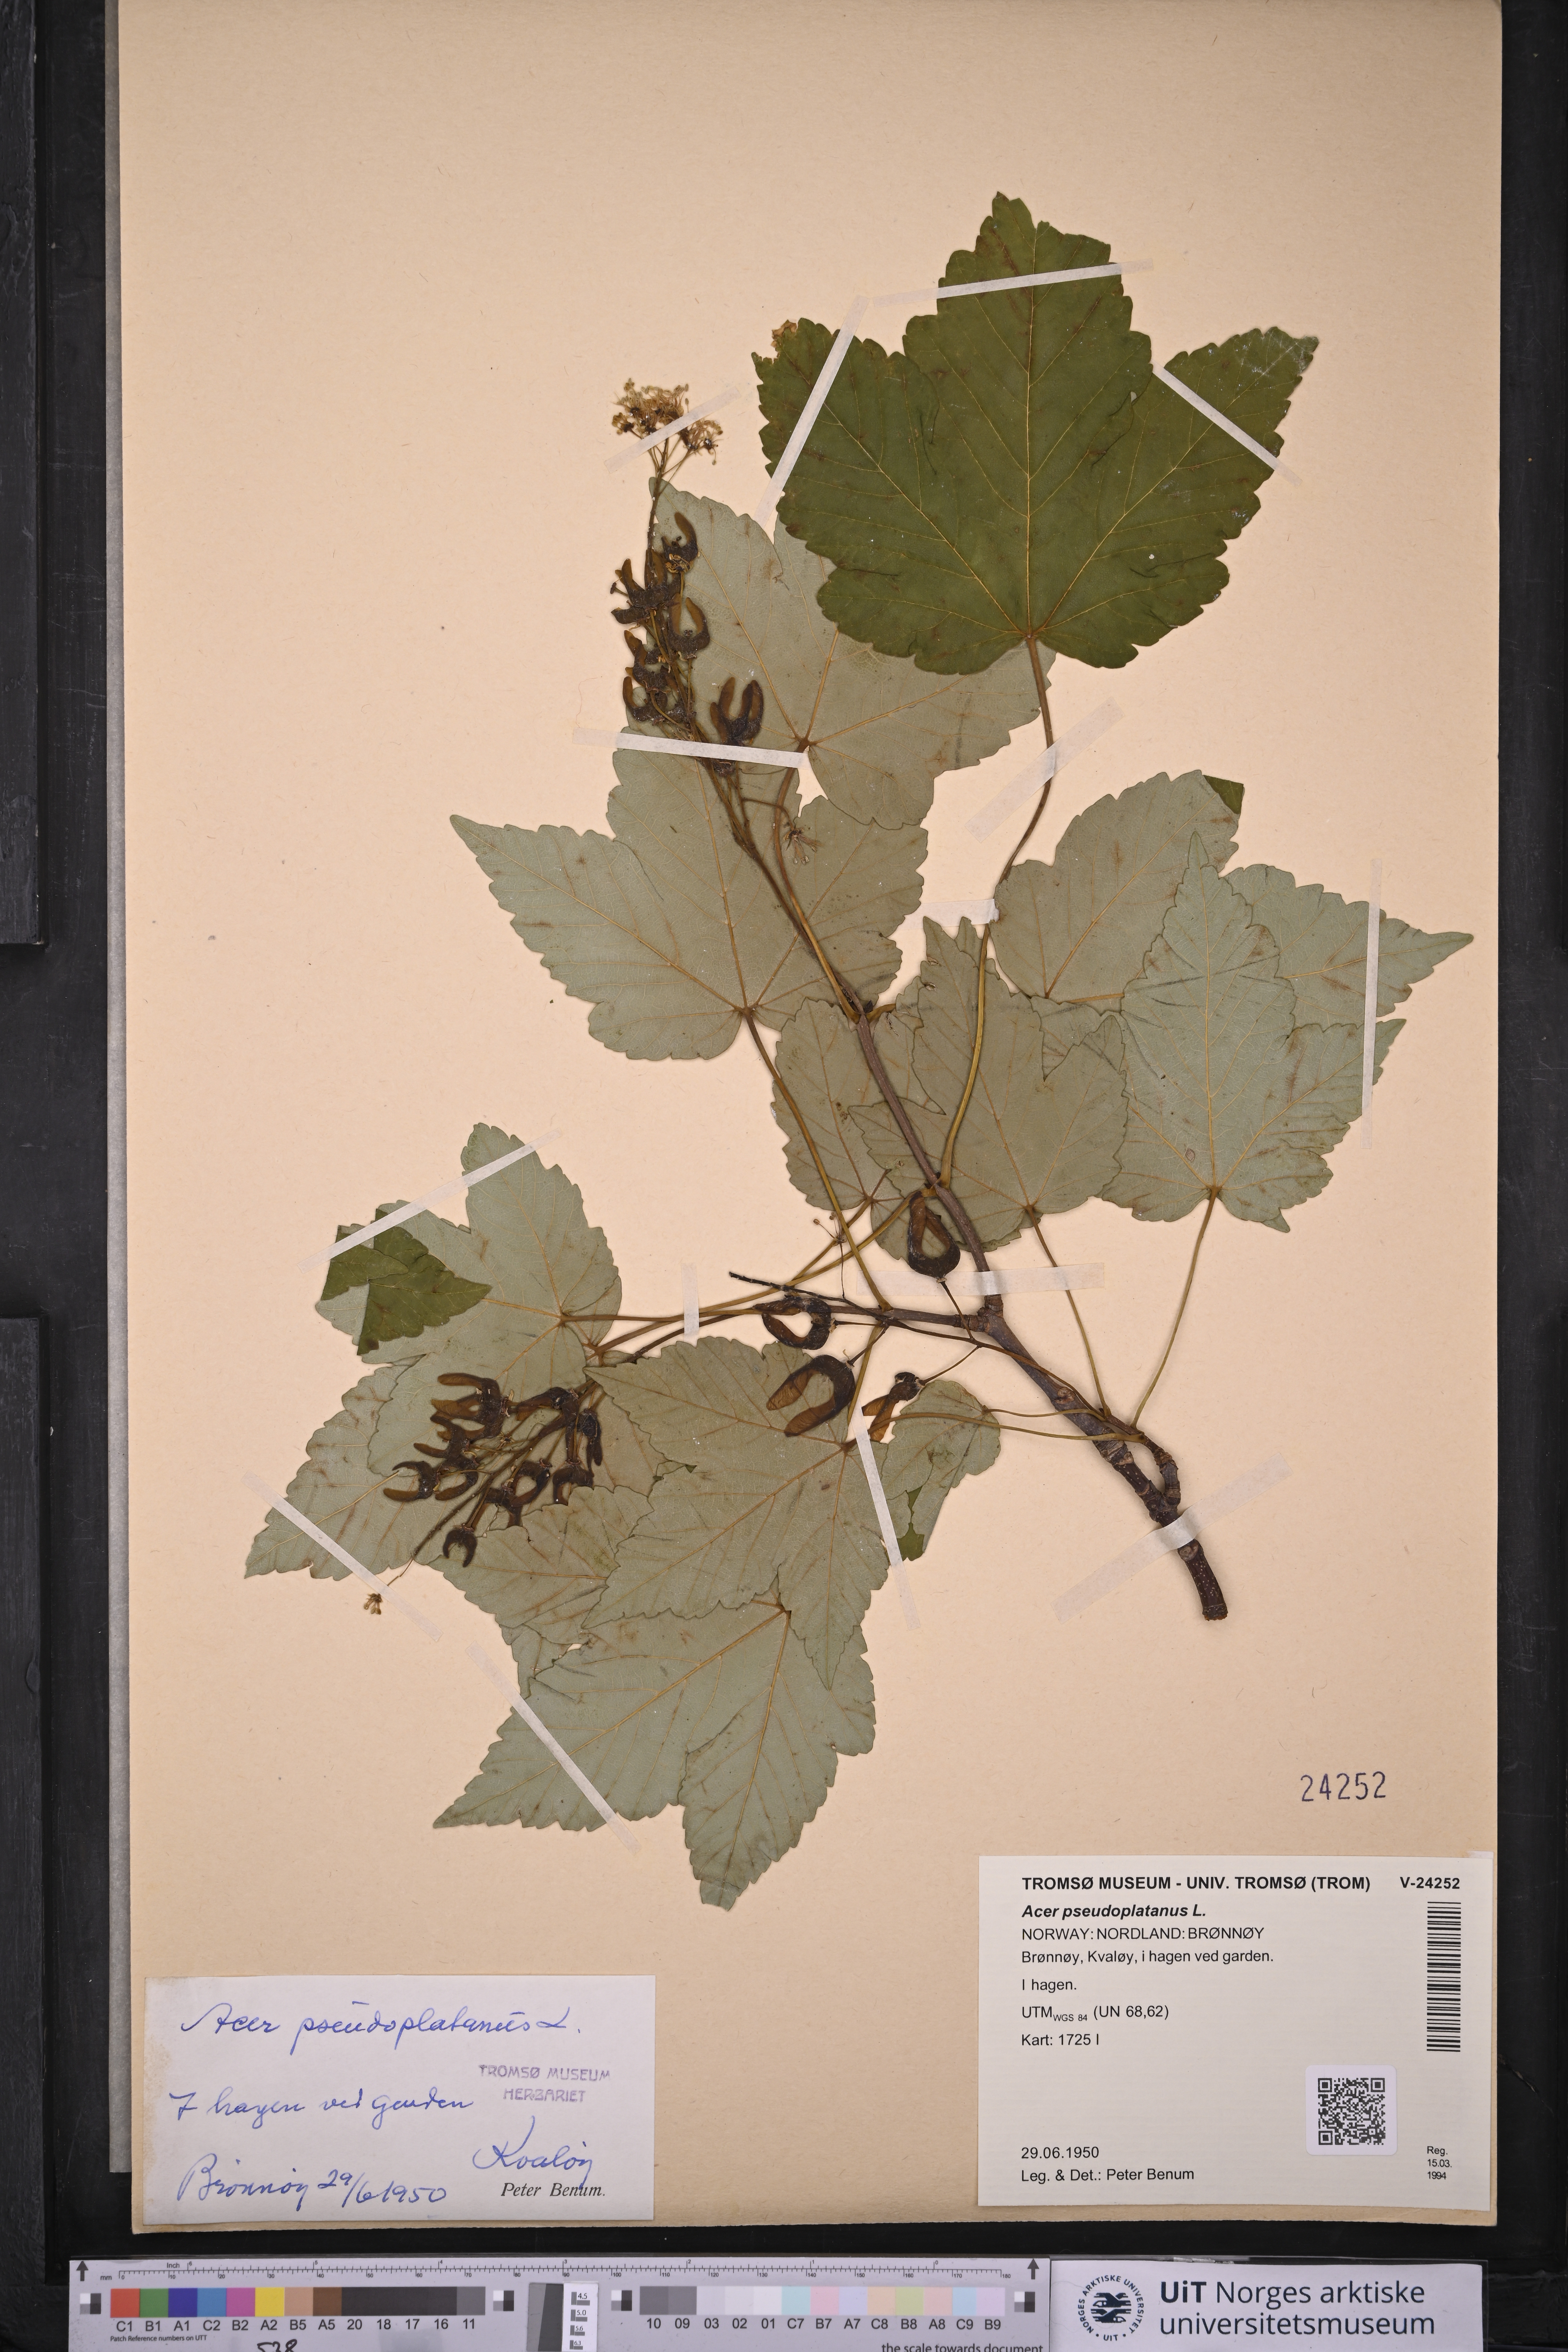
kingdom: Plantae
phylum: Tracheophyta
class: Magnoliopsida
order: Sapindales
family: Sapindaceae
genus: Acer
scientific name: Acer pseudoplatanus
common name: Sycamore
